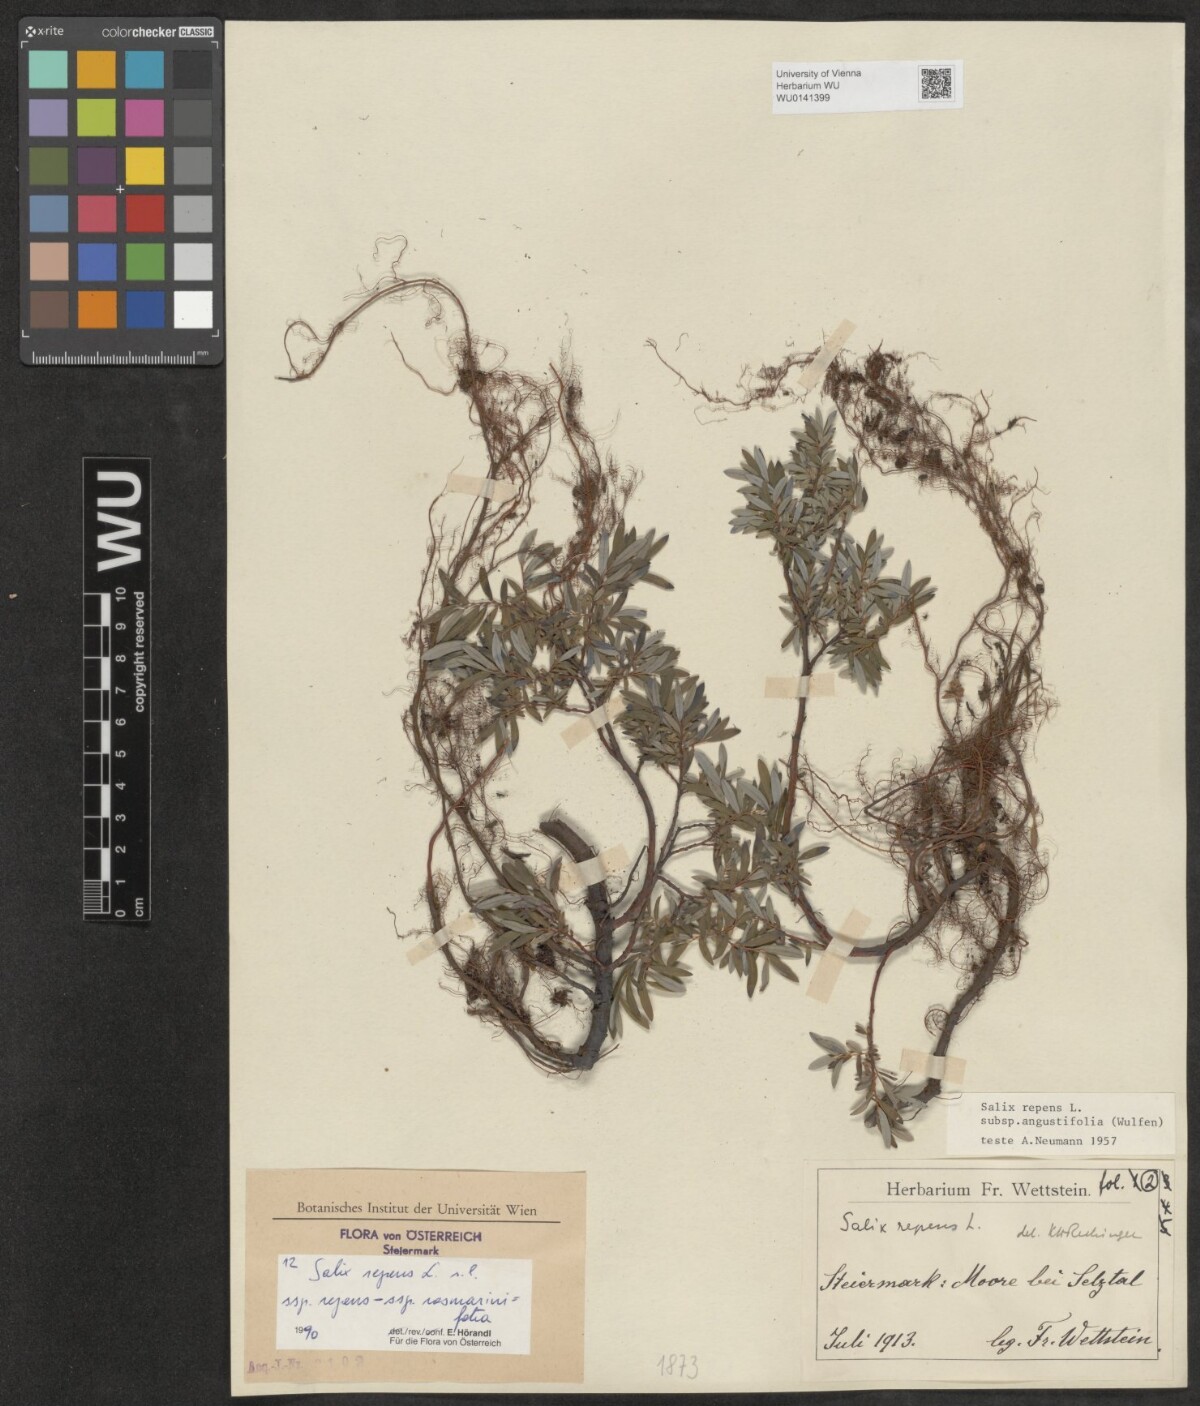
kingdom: Plantae
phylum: Tracheophyta
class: Magnoliopsida
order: Malpighiales
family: Salicaceae
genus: Salix
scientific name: Salix repens
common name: Creeping willow
